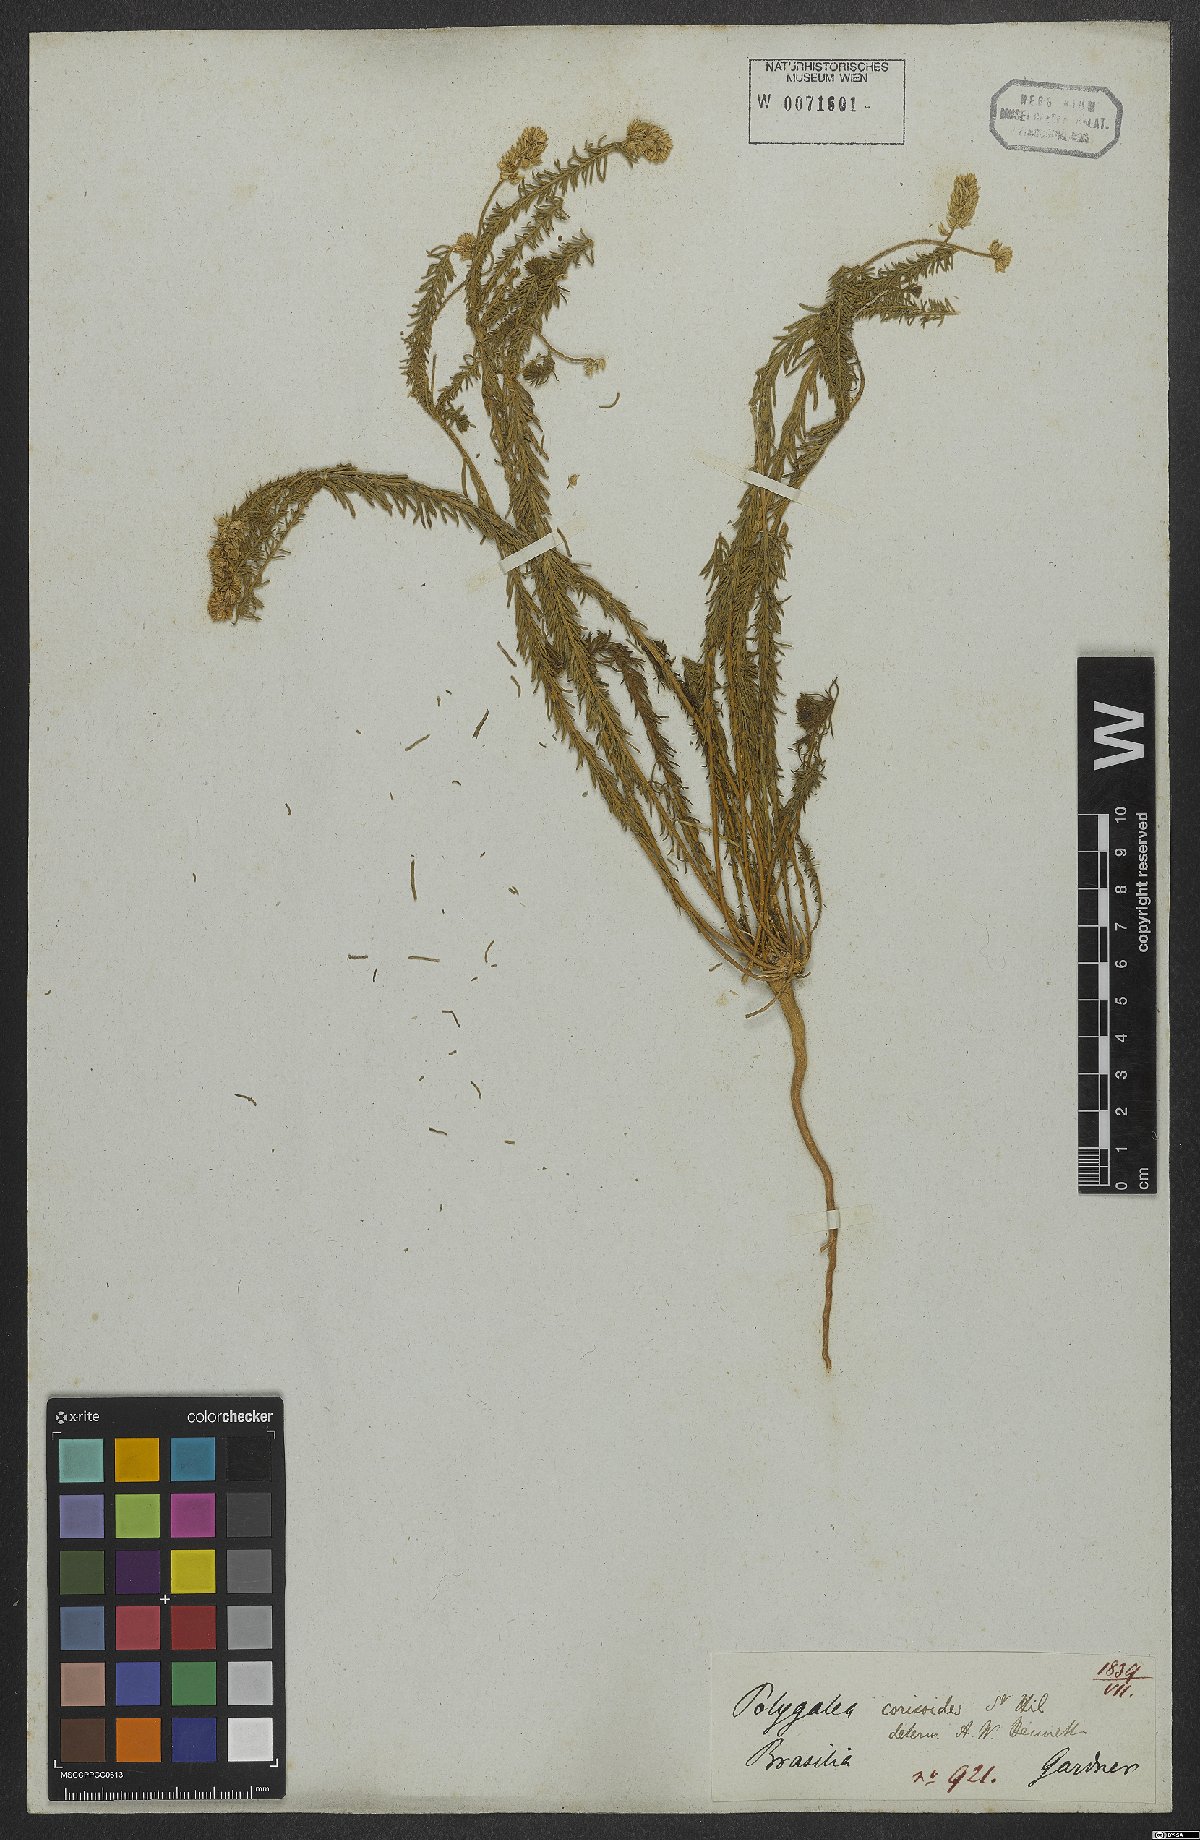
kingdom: Plantae
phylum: Tracheophyta
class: Magnoliopsida
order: Fabales
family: Polygalaceae
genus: Polygala
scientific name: Polygala cyparissias
